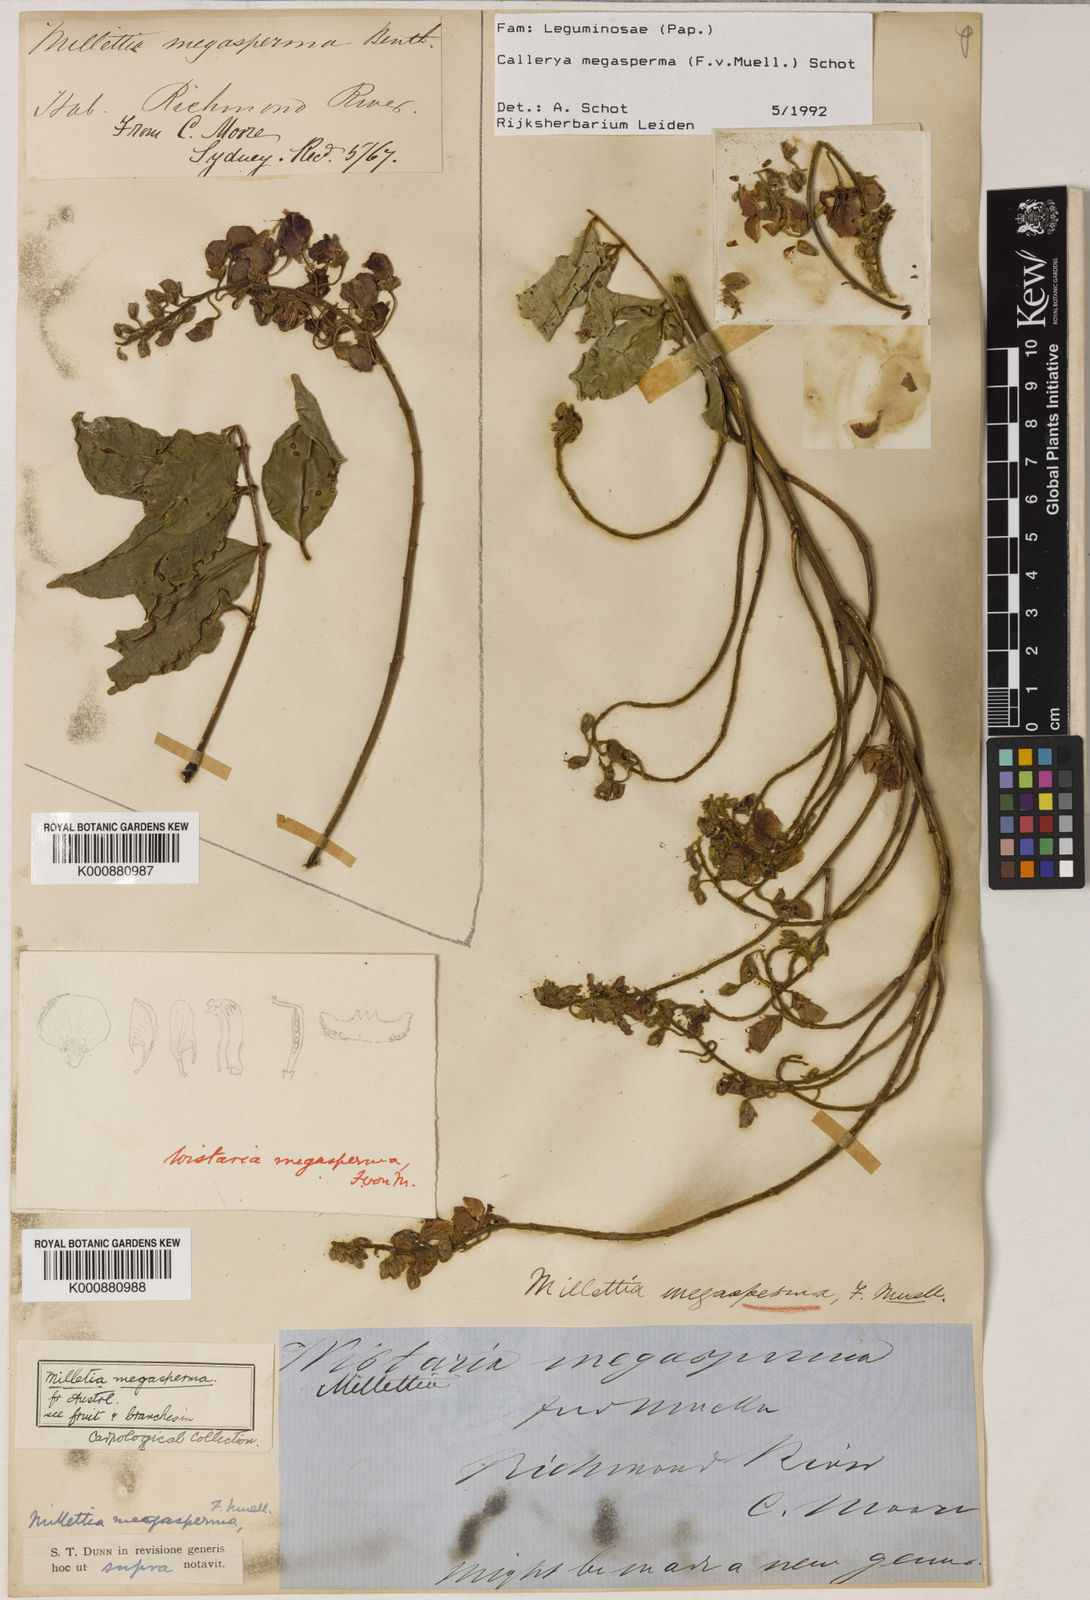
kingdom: Plantae
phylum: Tracheophyta
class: Magnoliopsida
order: Fabales
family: Fabaceae
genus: Austrocallerya
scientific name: Austrocallerya megasperma
